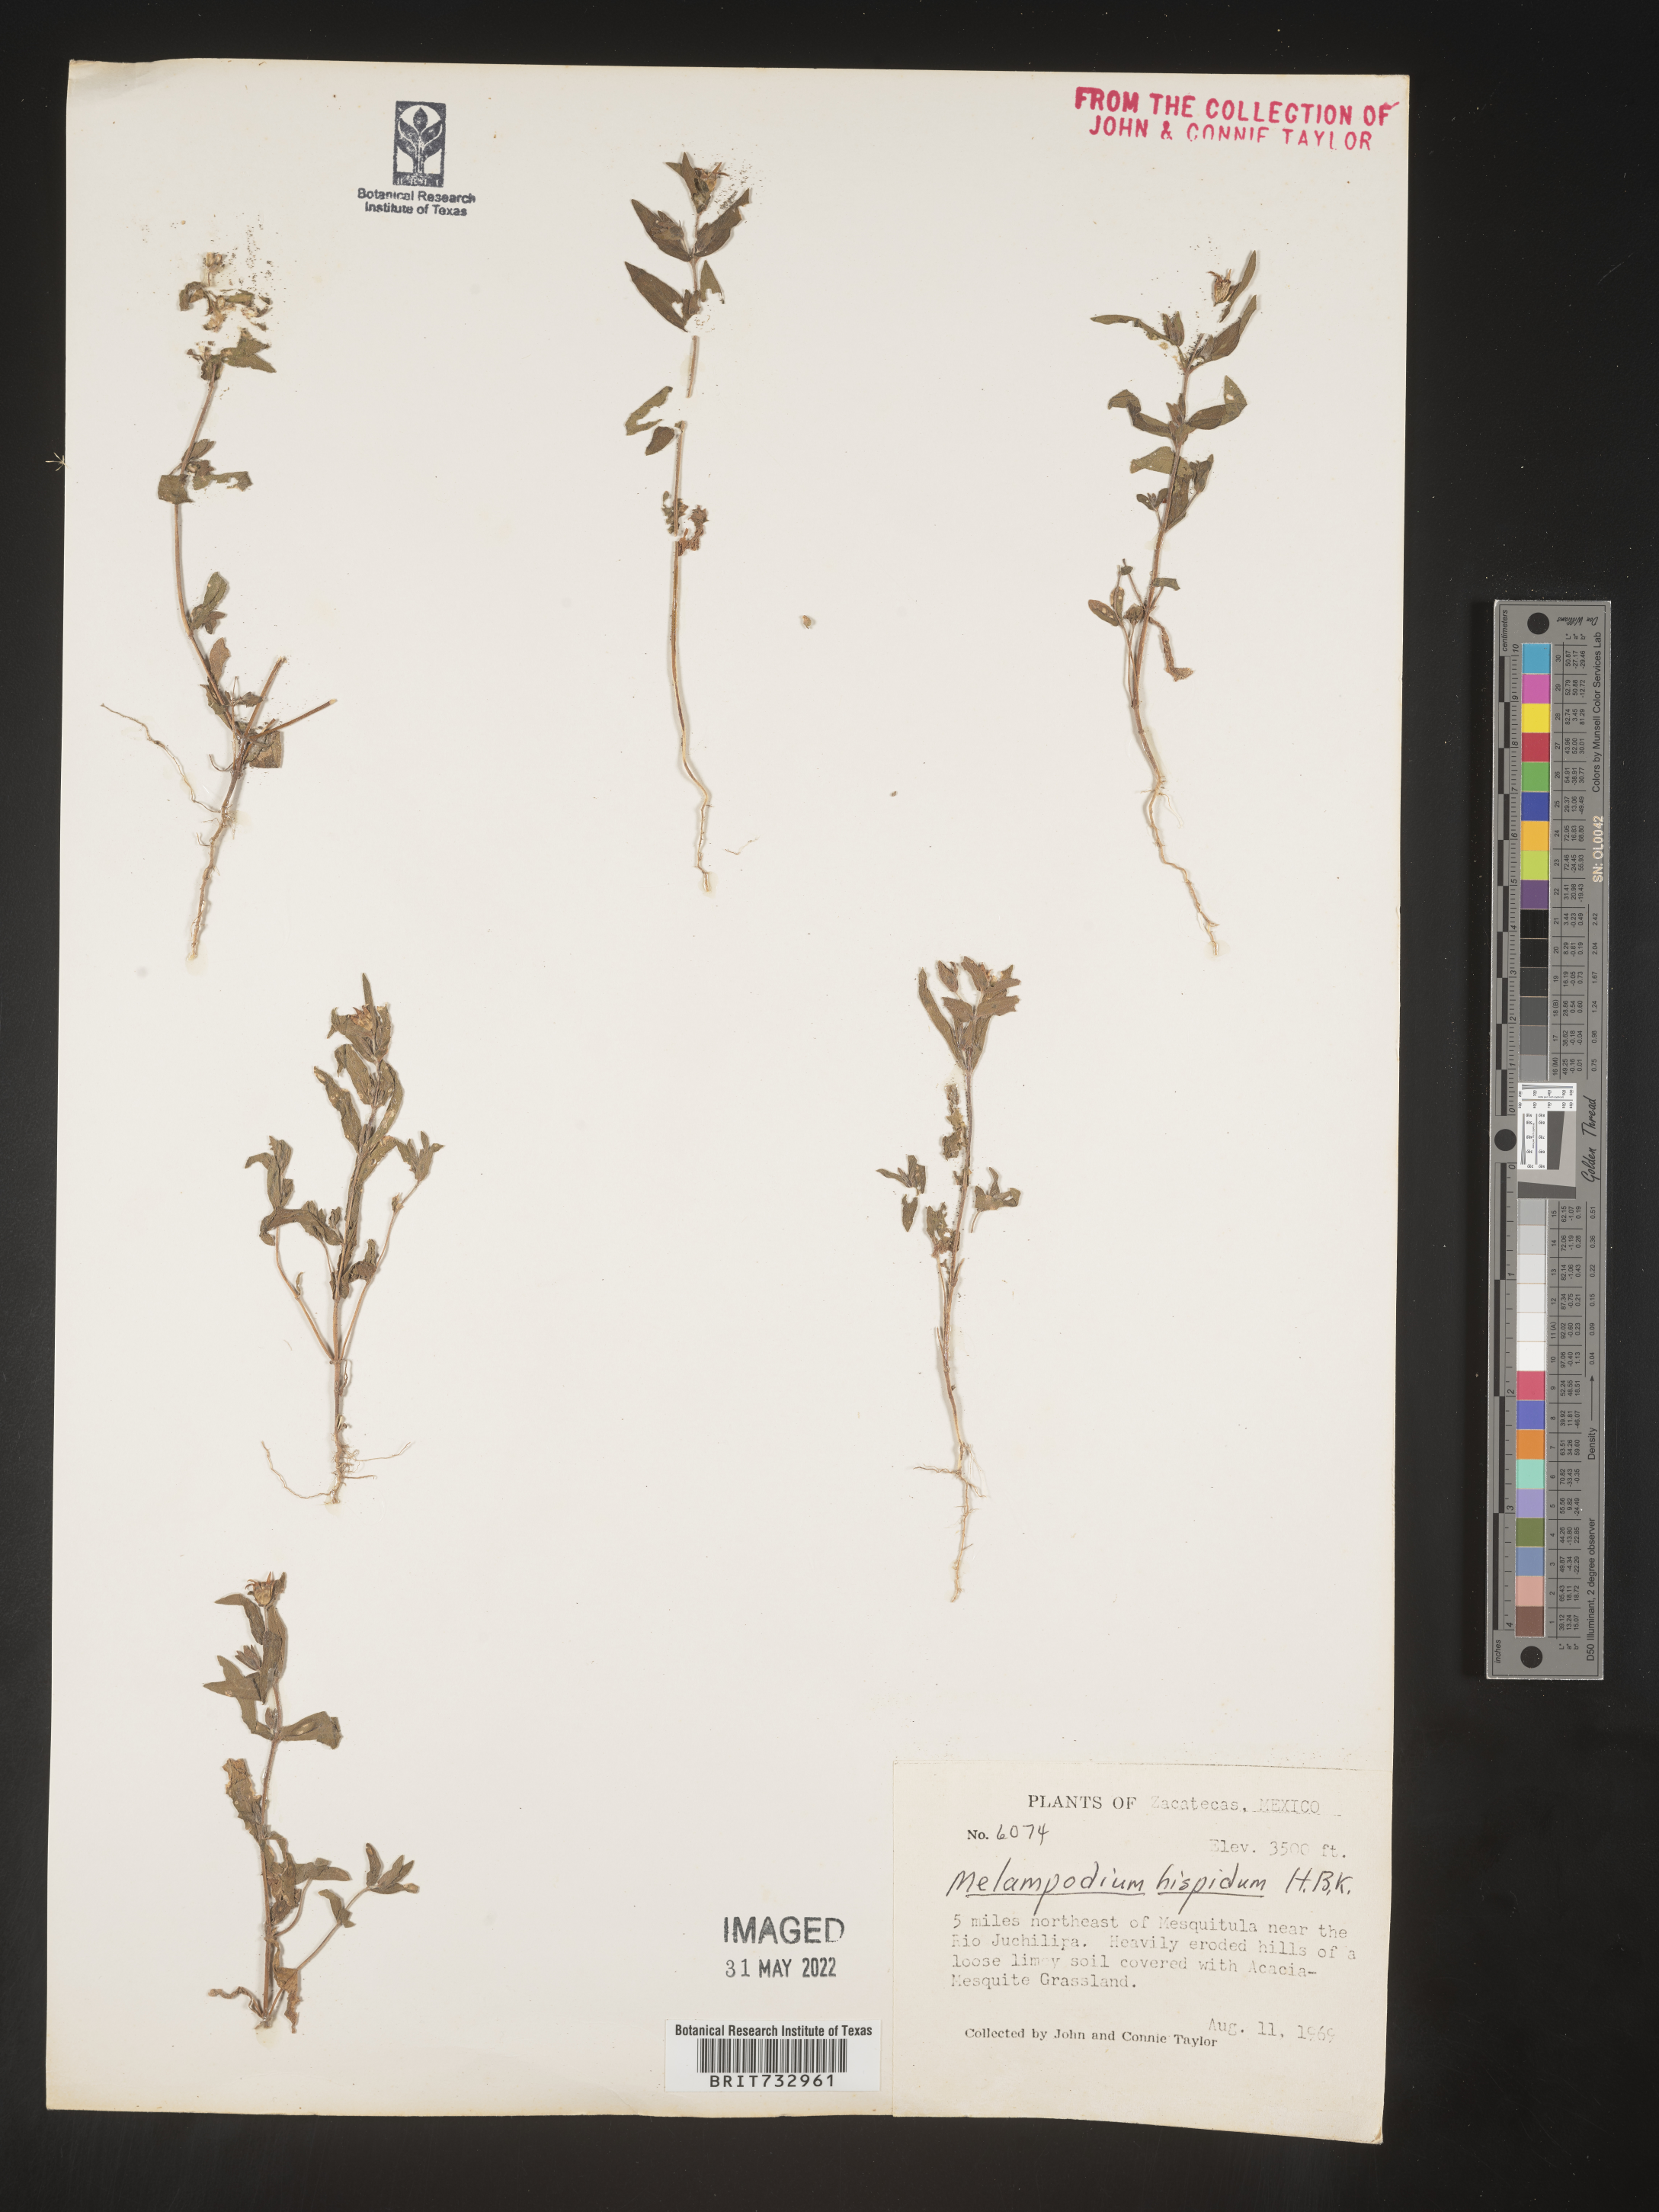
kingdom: Plantae
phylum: Tracheophyta
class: Magnoliopsida
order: Asterales
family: Asteraceae
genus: Melampodium
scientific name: Melampodium sericeum
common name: Rough blackfoot
